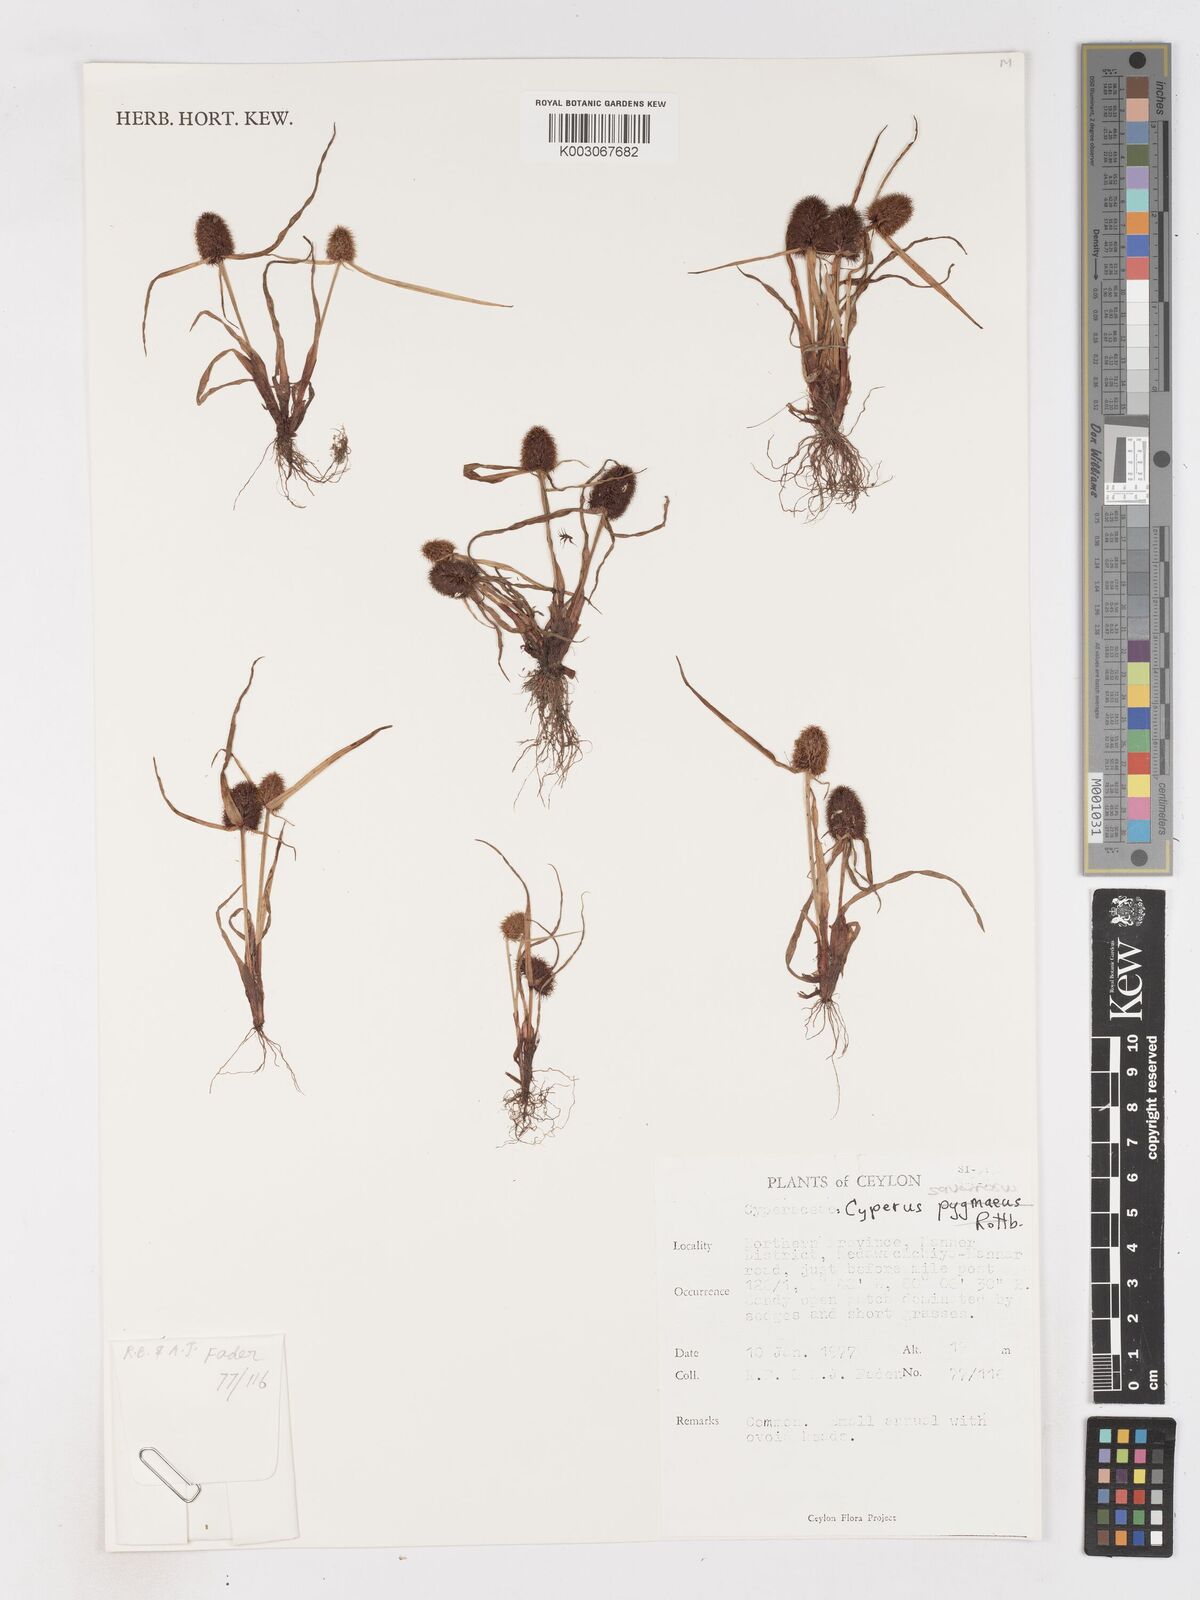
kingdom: Plantae
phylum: Tracheophyta
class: Liliopsida
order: Poales
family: Cyperaceae
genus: Cyperus
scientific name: Cyperus squarrosus
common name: Awned cyperus
